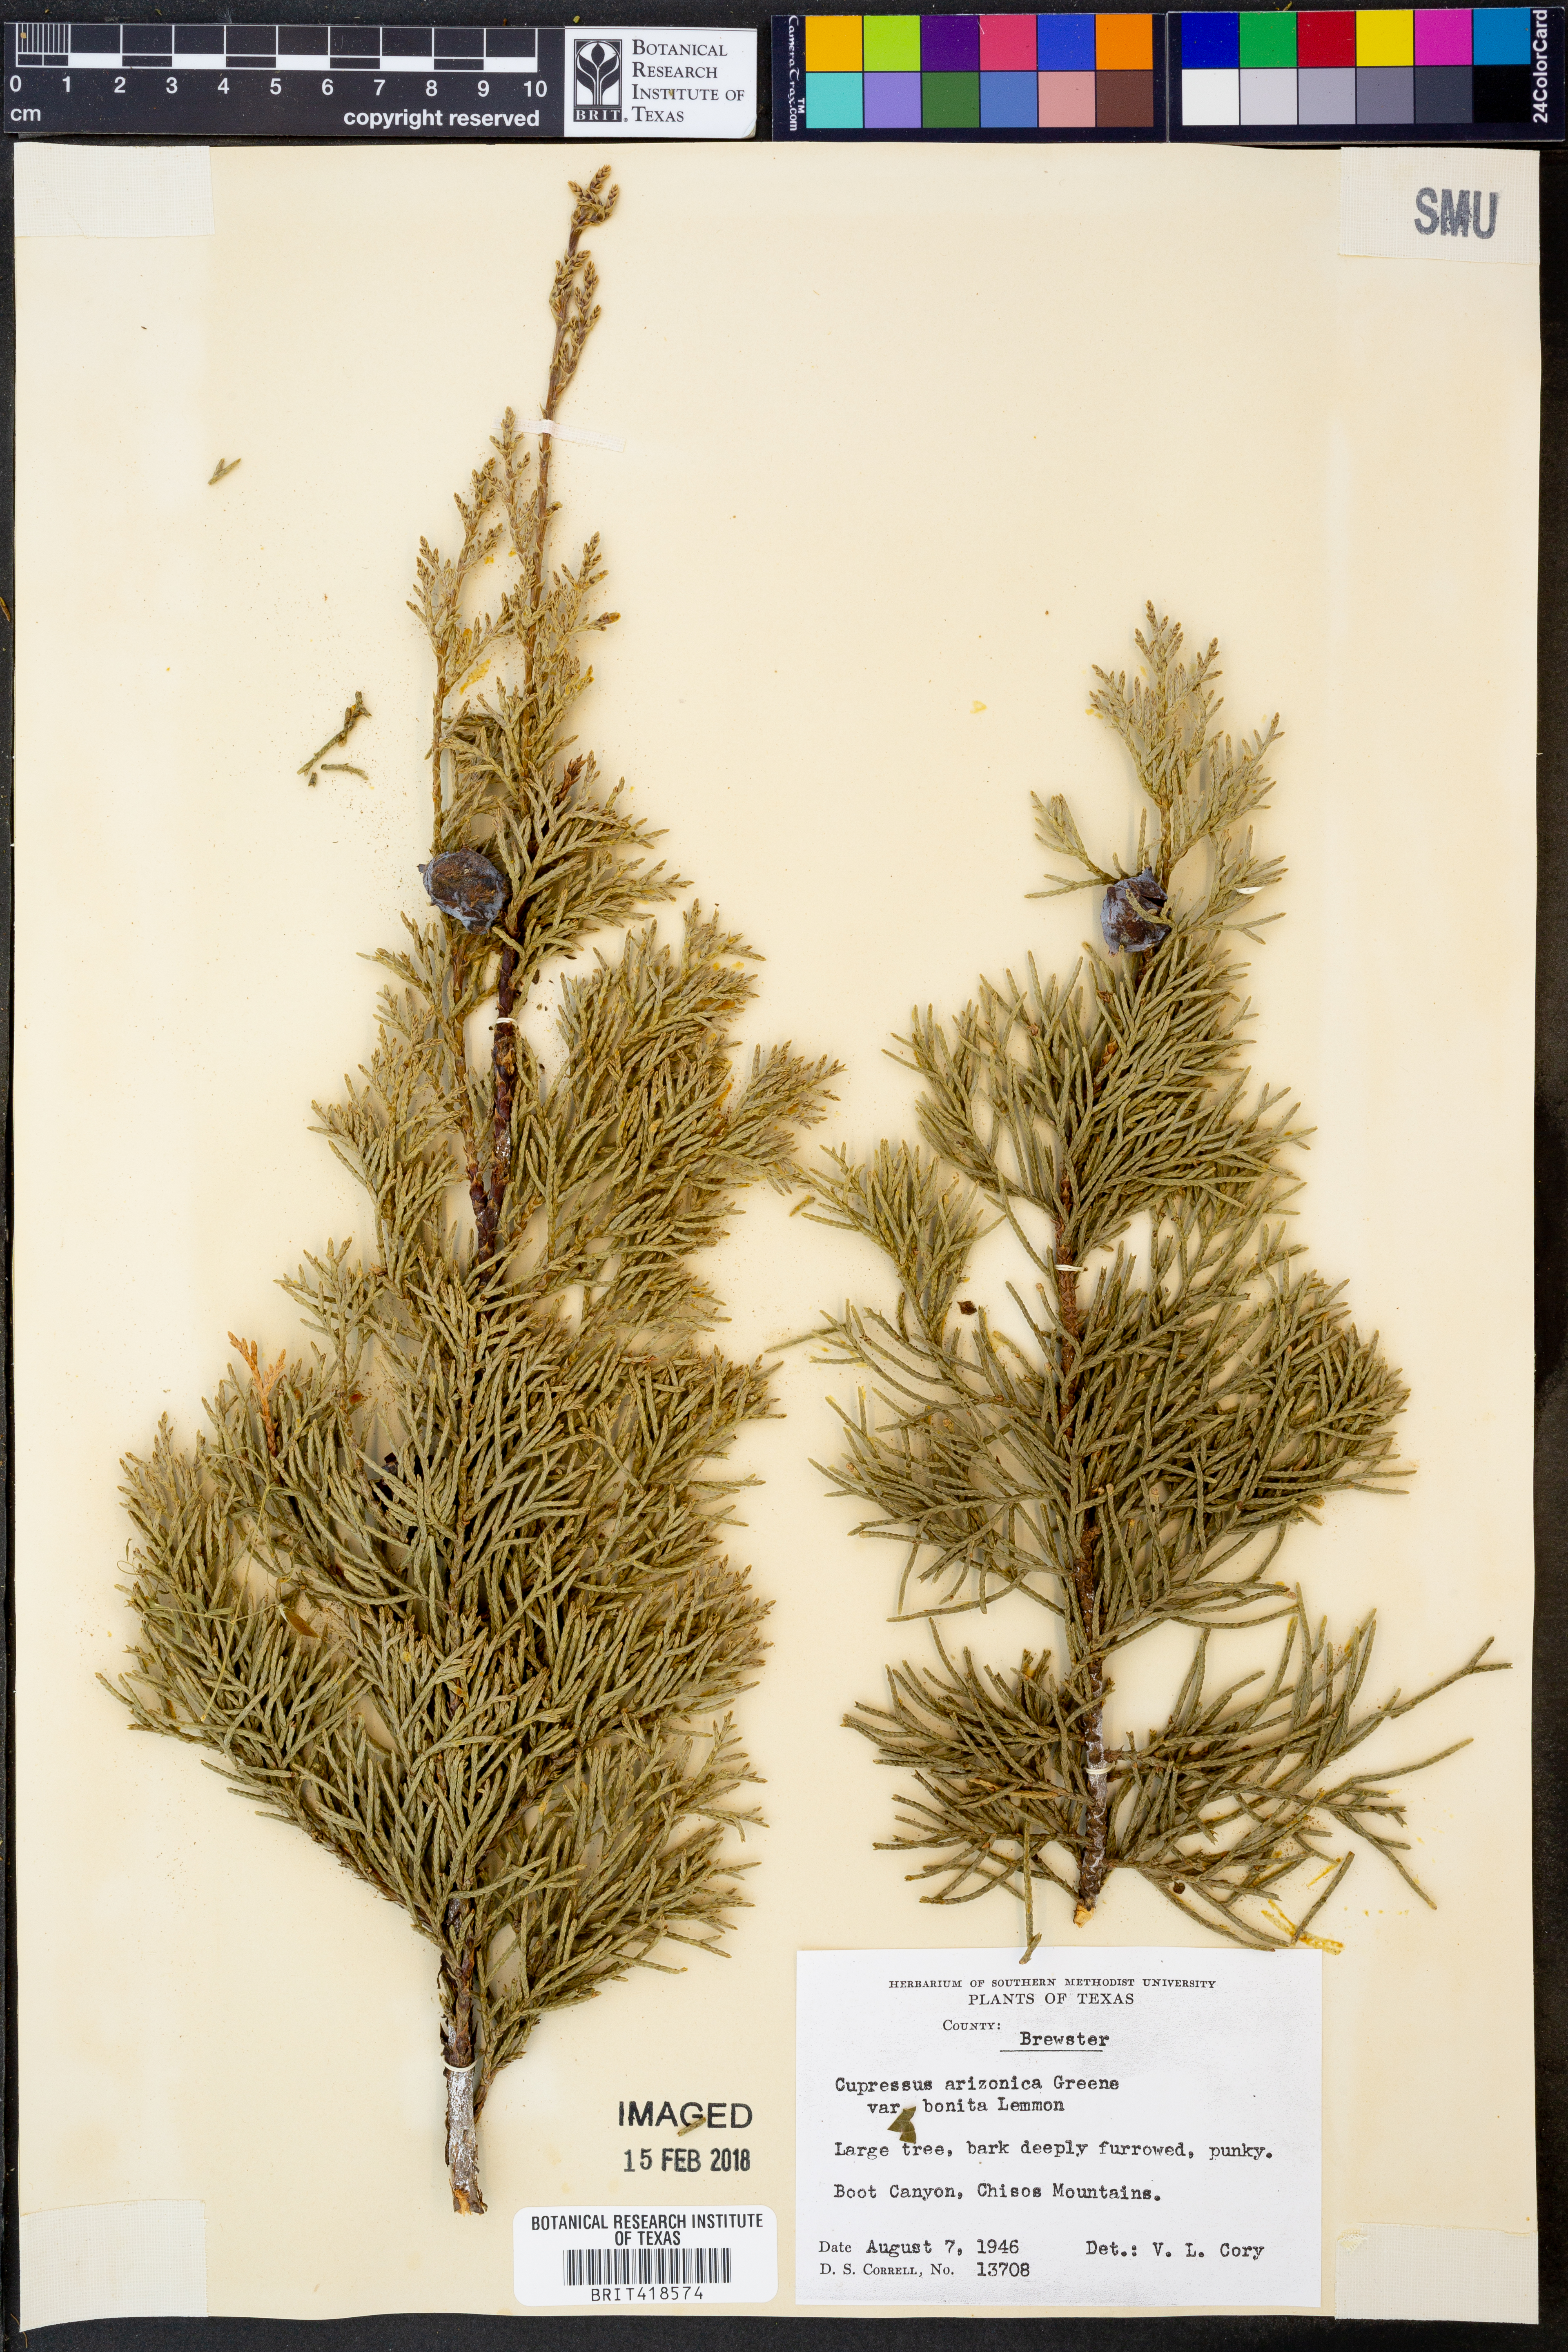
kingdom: Plantae
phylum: Tracheophyta
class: Pinopsida
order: Pinales
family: Cupressaceae
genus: Cupressus
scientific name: Cupressus arizonica
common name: Arizona cypress
